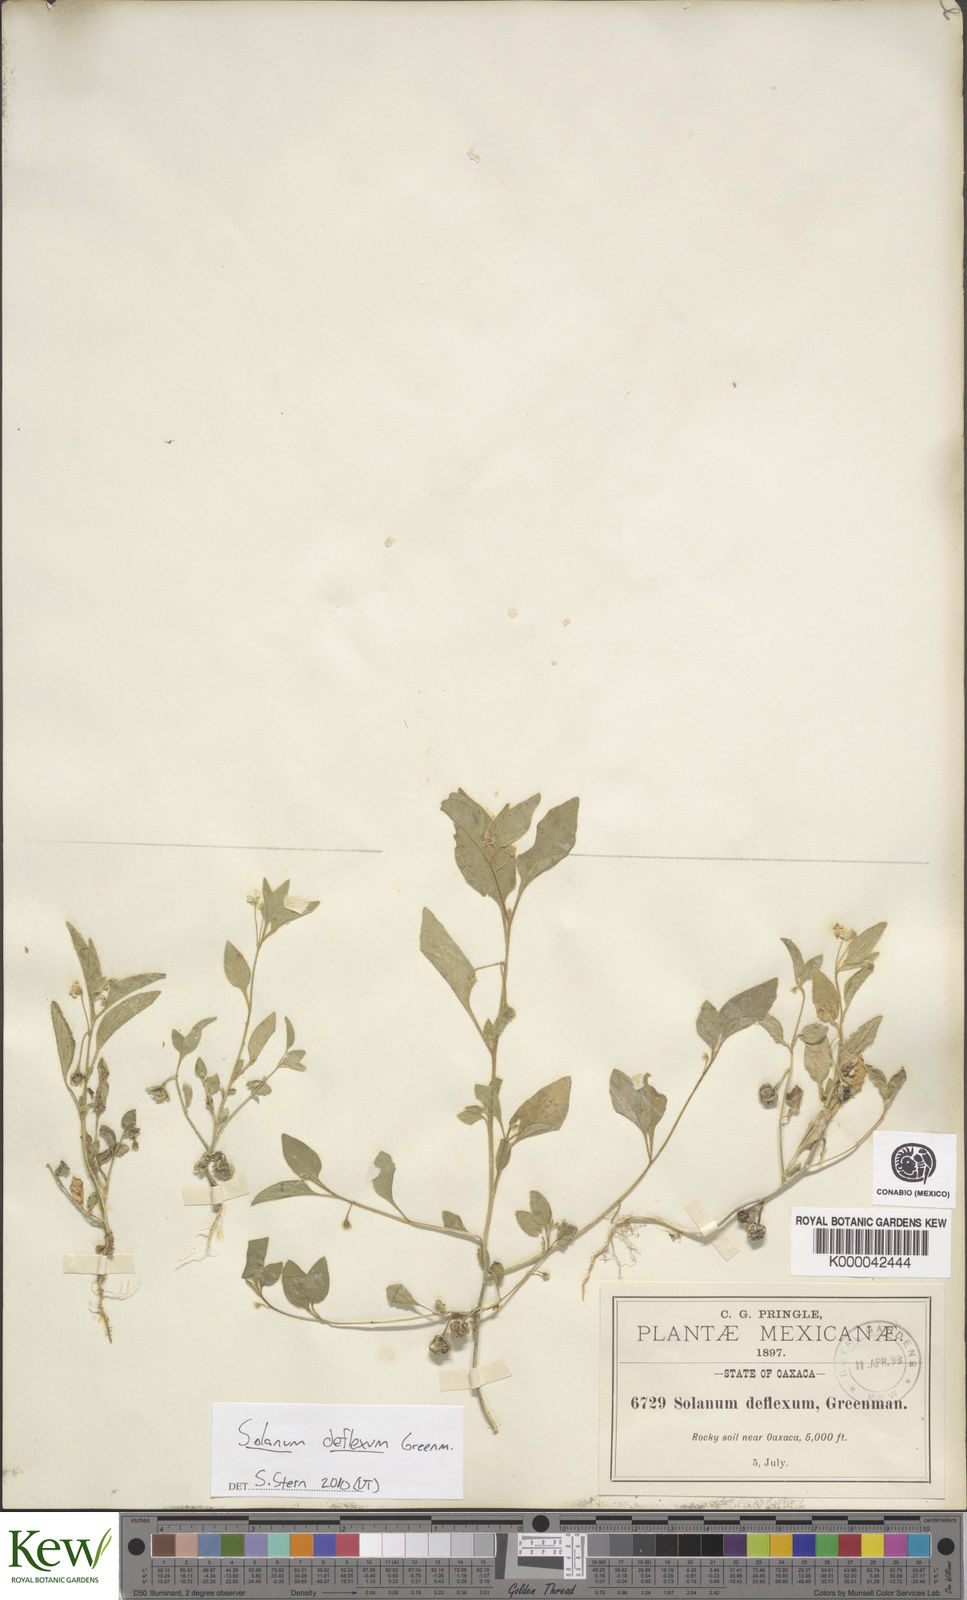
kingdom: Plantae
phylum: Tracheophyta
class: Magnoliopsida
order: Solanales
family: Solanaceae
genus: Solanum
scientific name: Solanum deflexum
